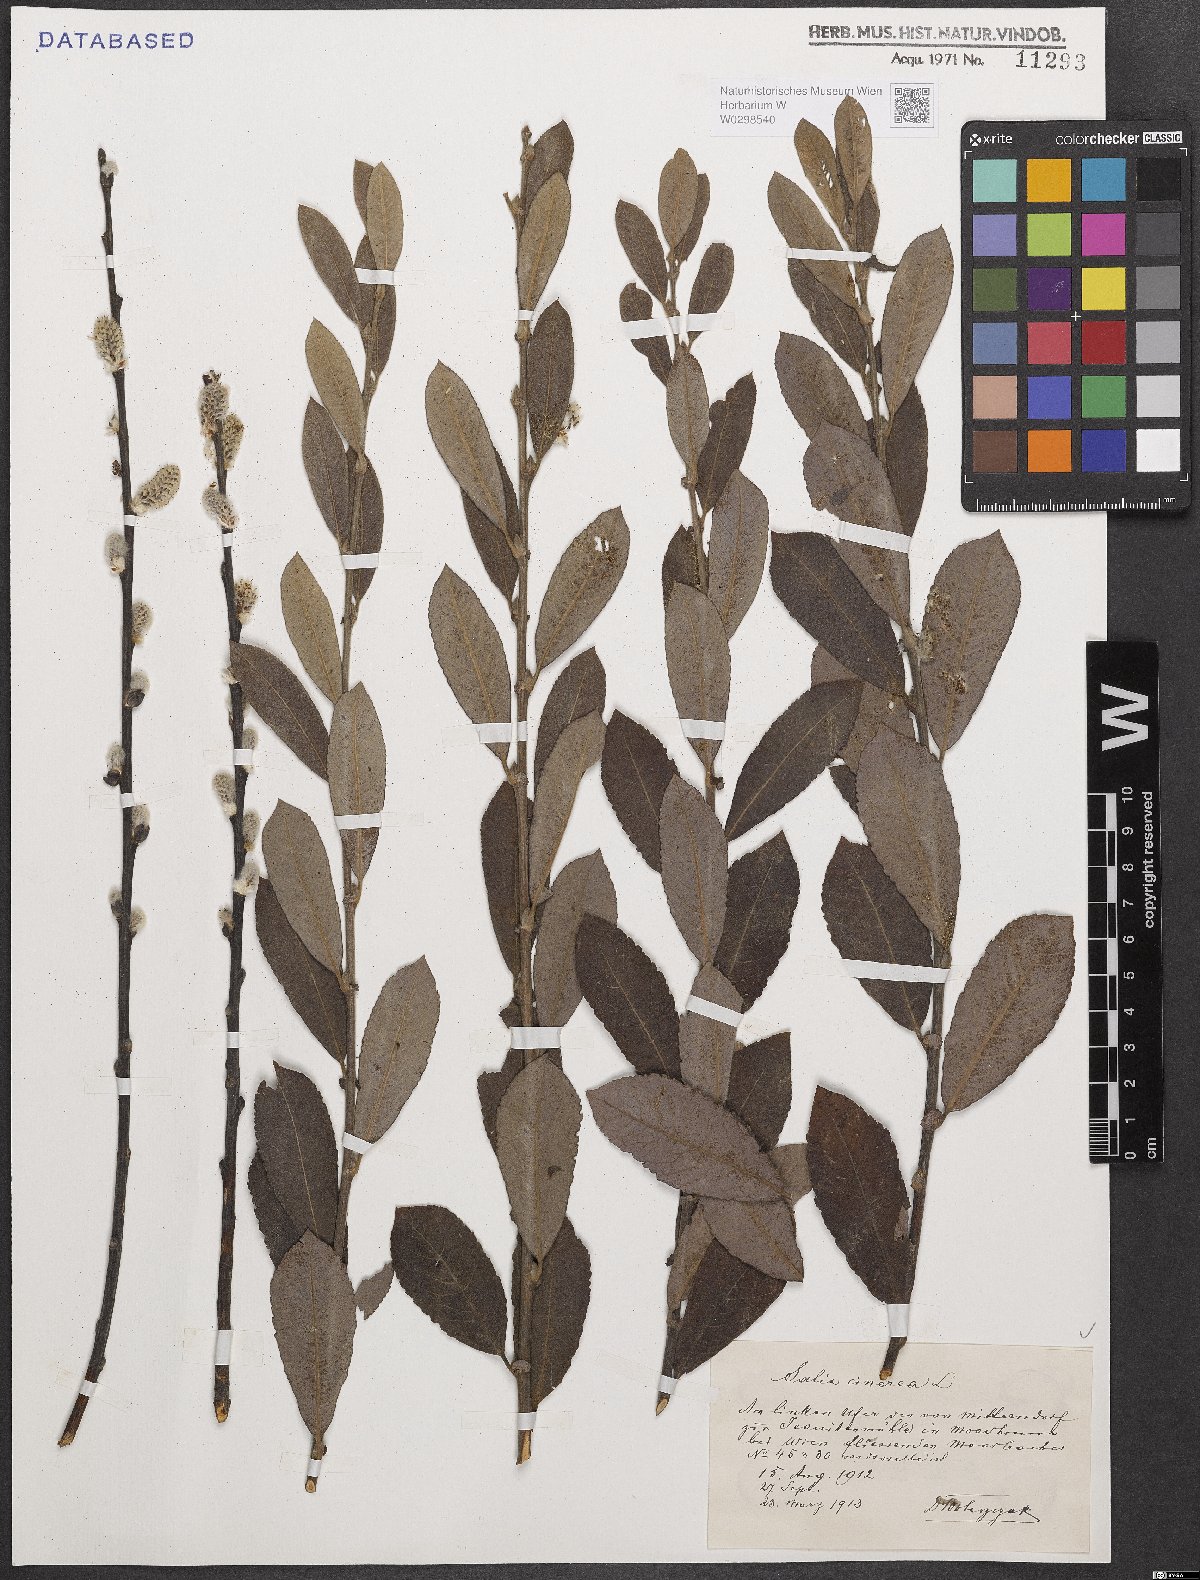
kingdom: Plantae
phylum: Tracheophyta
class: Magnoliopsida
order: Malpighiales
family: Salicaceae
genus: Salix
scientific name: Salix cinerea
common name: Common sallow
